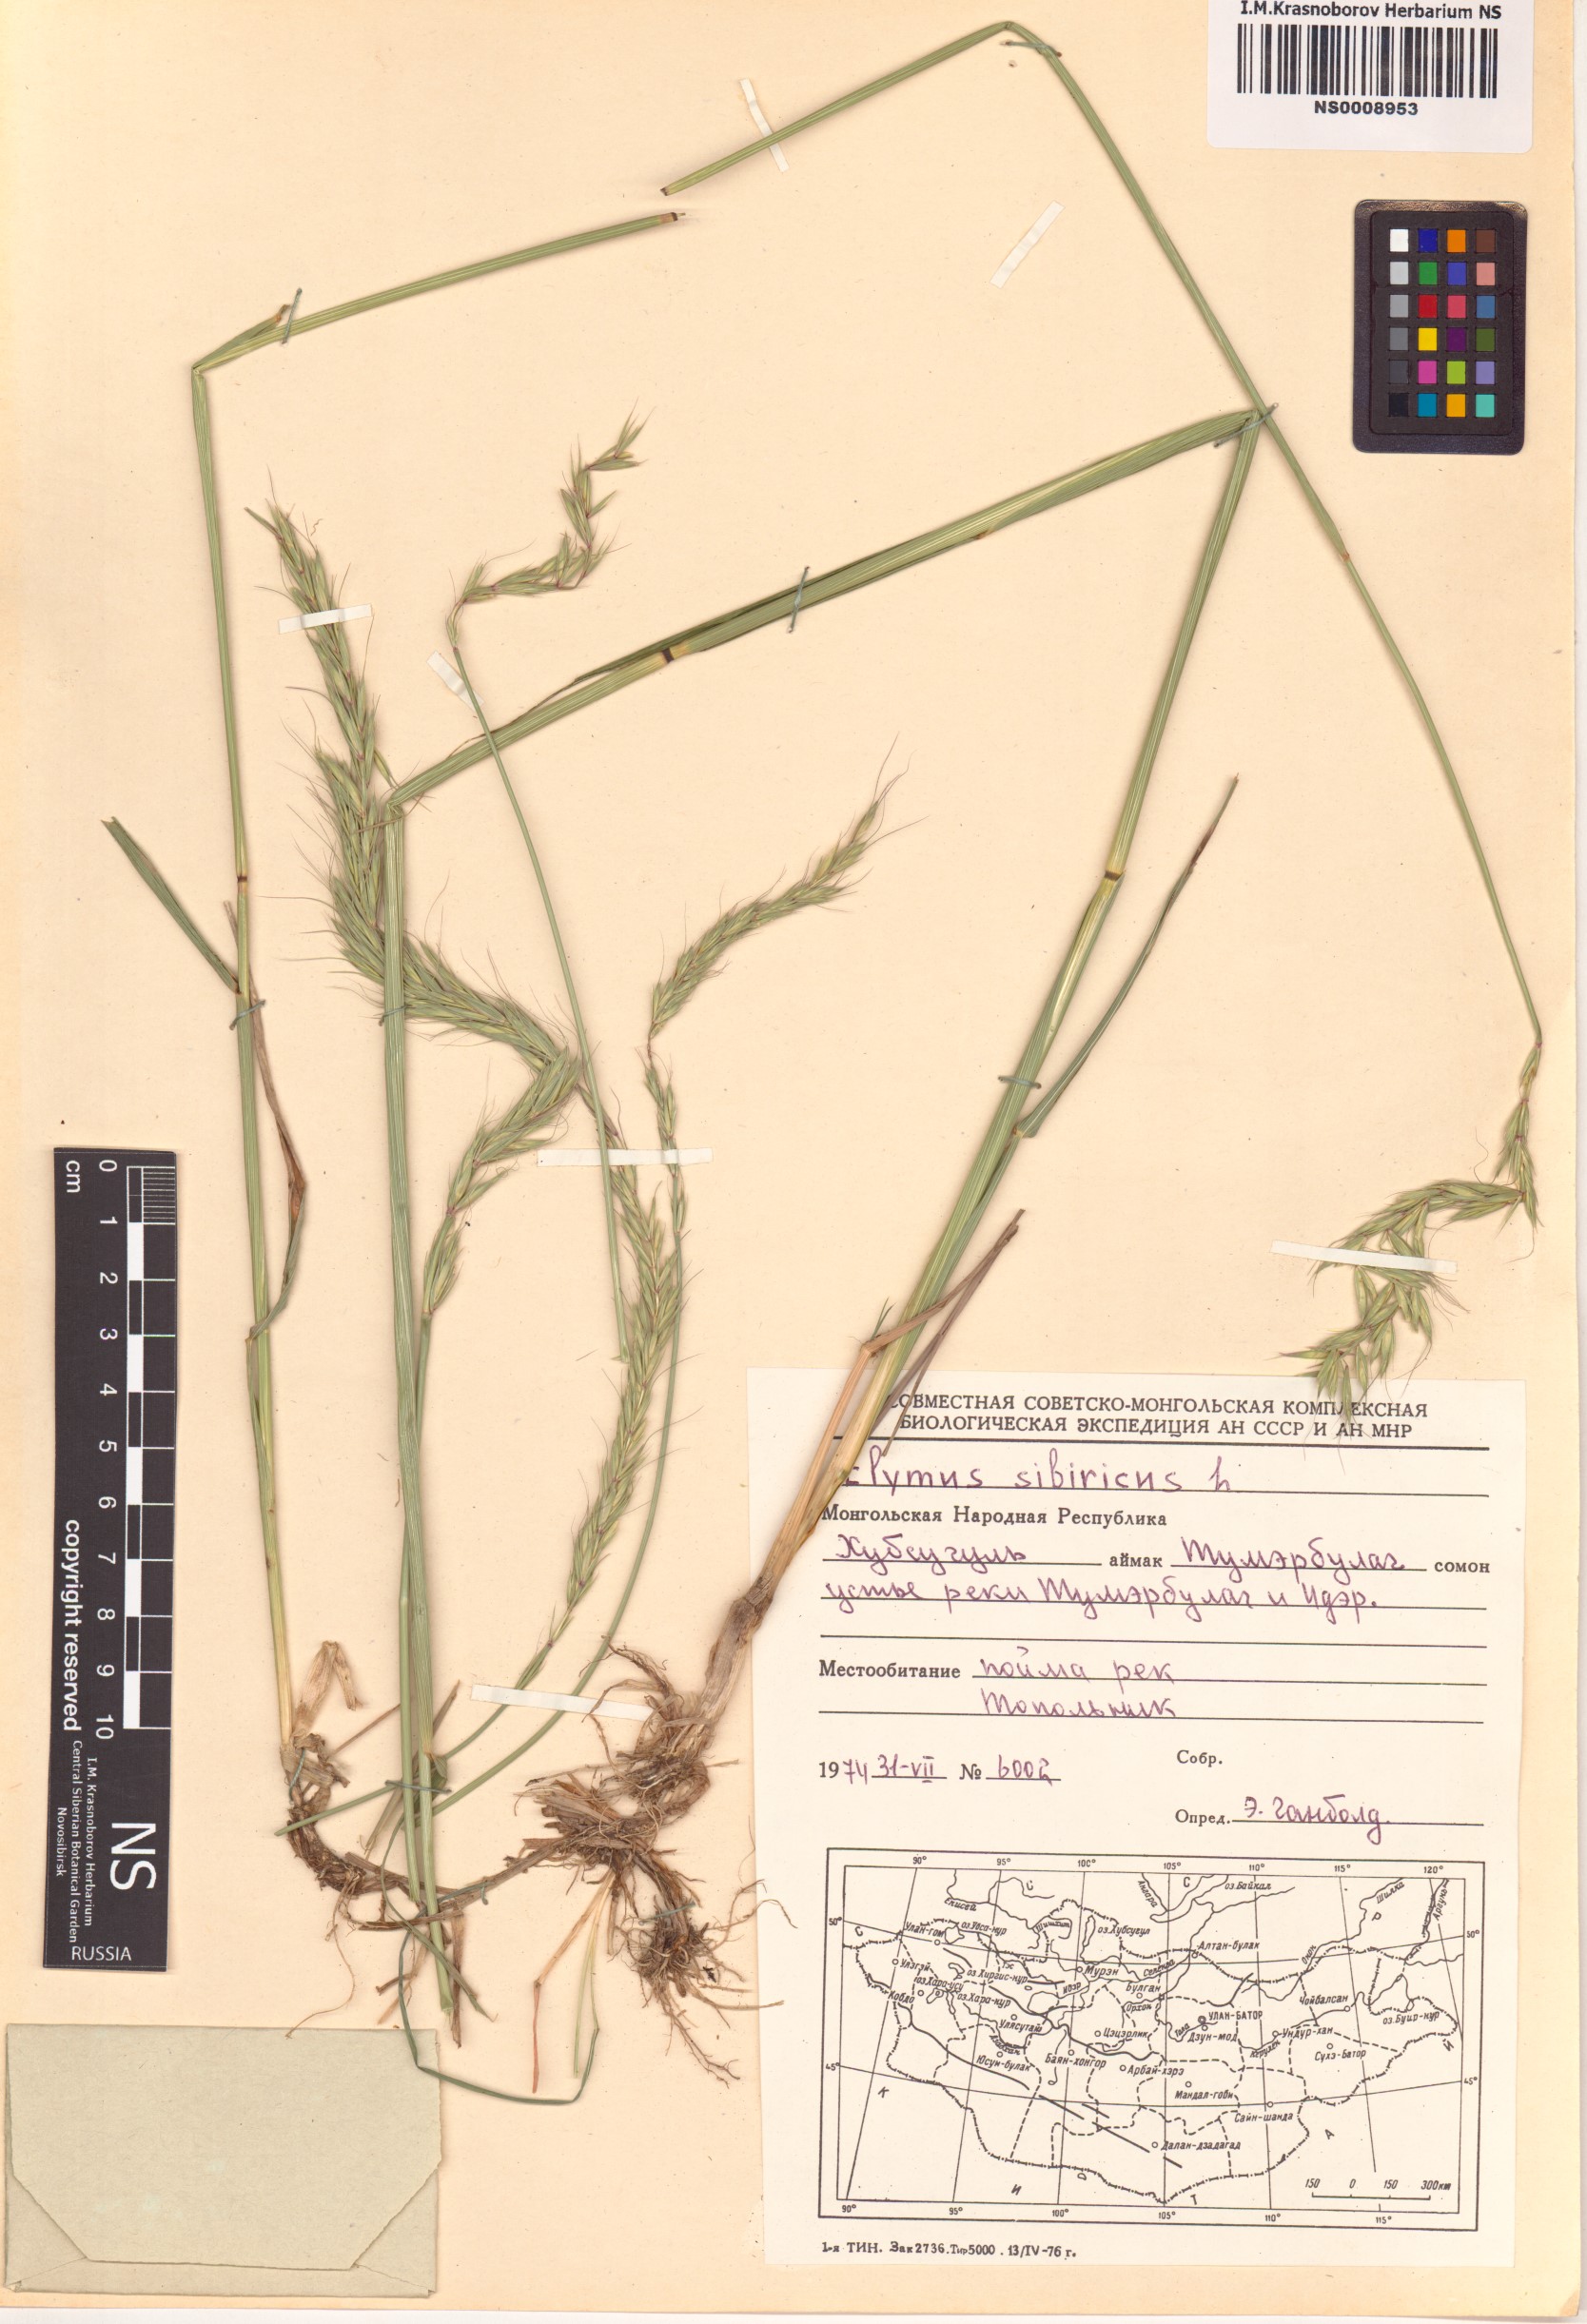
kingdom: Plantae
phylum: Tracheophyta
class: Liliopsida
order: Poales
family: Poaceae
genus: Elymus
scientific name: Elymus sibiricus
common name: Siberian wildrye
